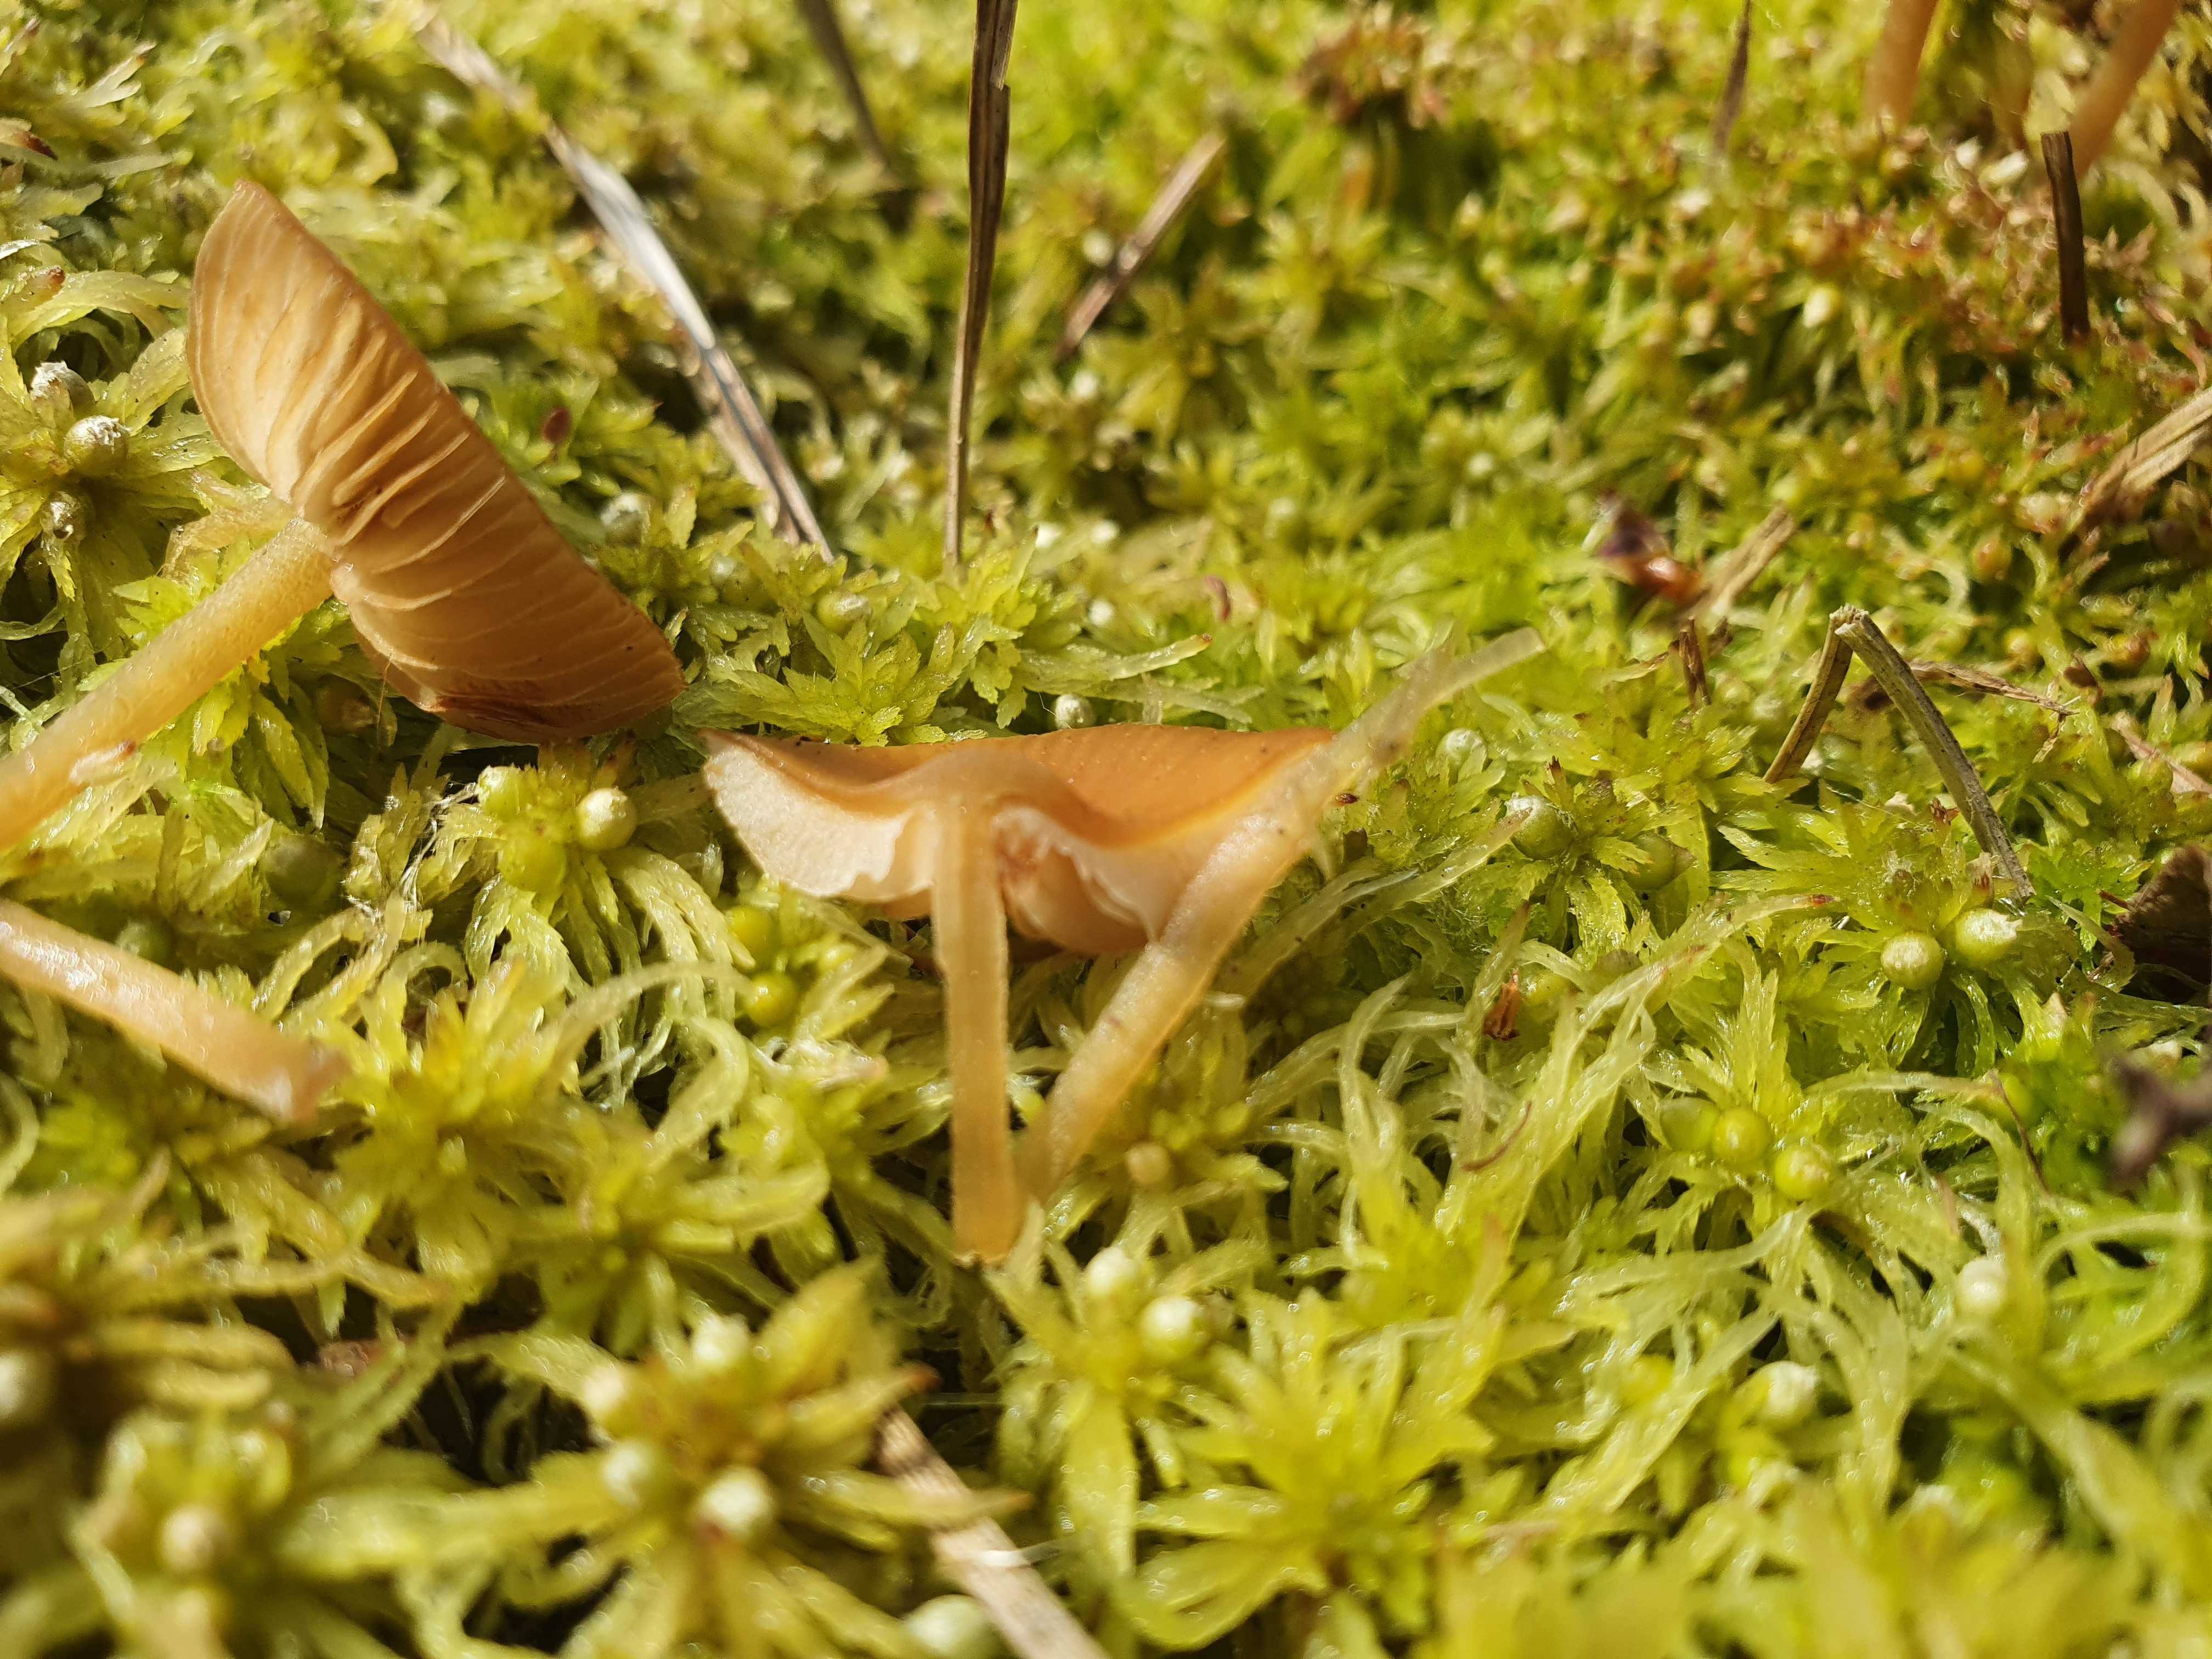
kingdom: Fungi
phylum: Basidiomycota
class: Agaricomycetes
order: Agaricales
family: Hymenogastraceae
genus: Galerina
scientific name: Galerina hybrida
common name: hængesæk-hjelmhat
